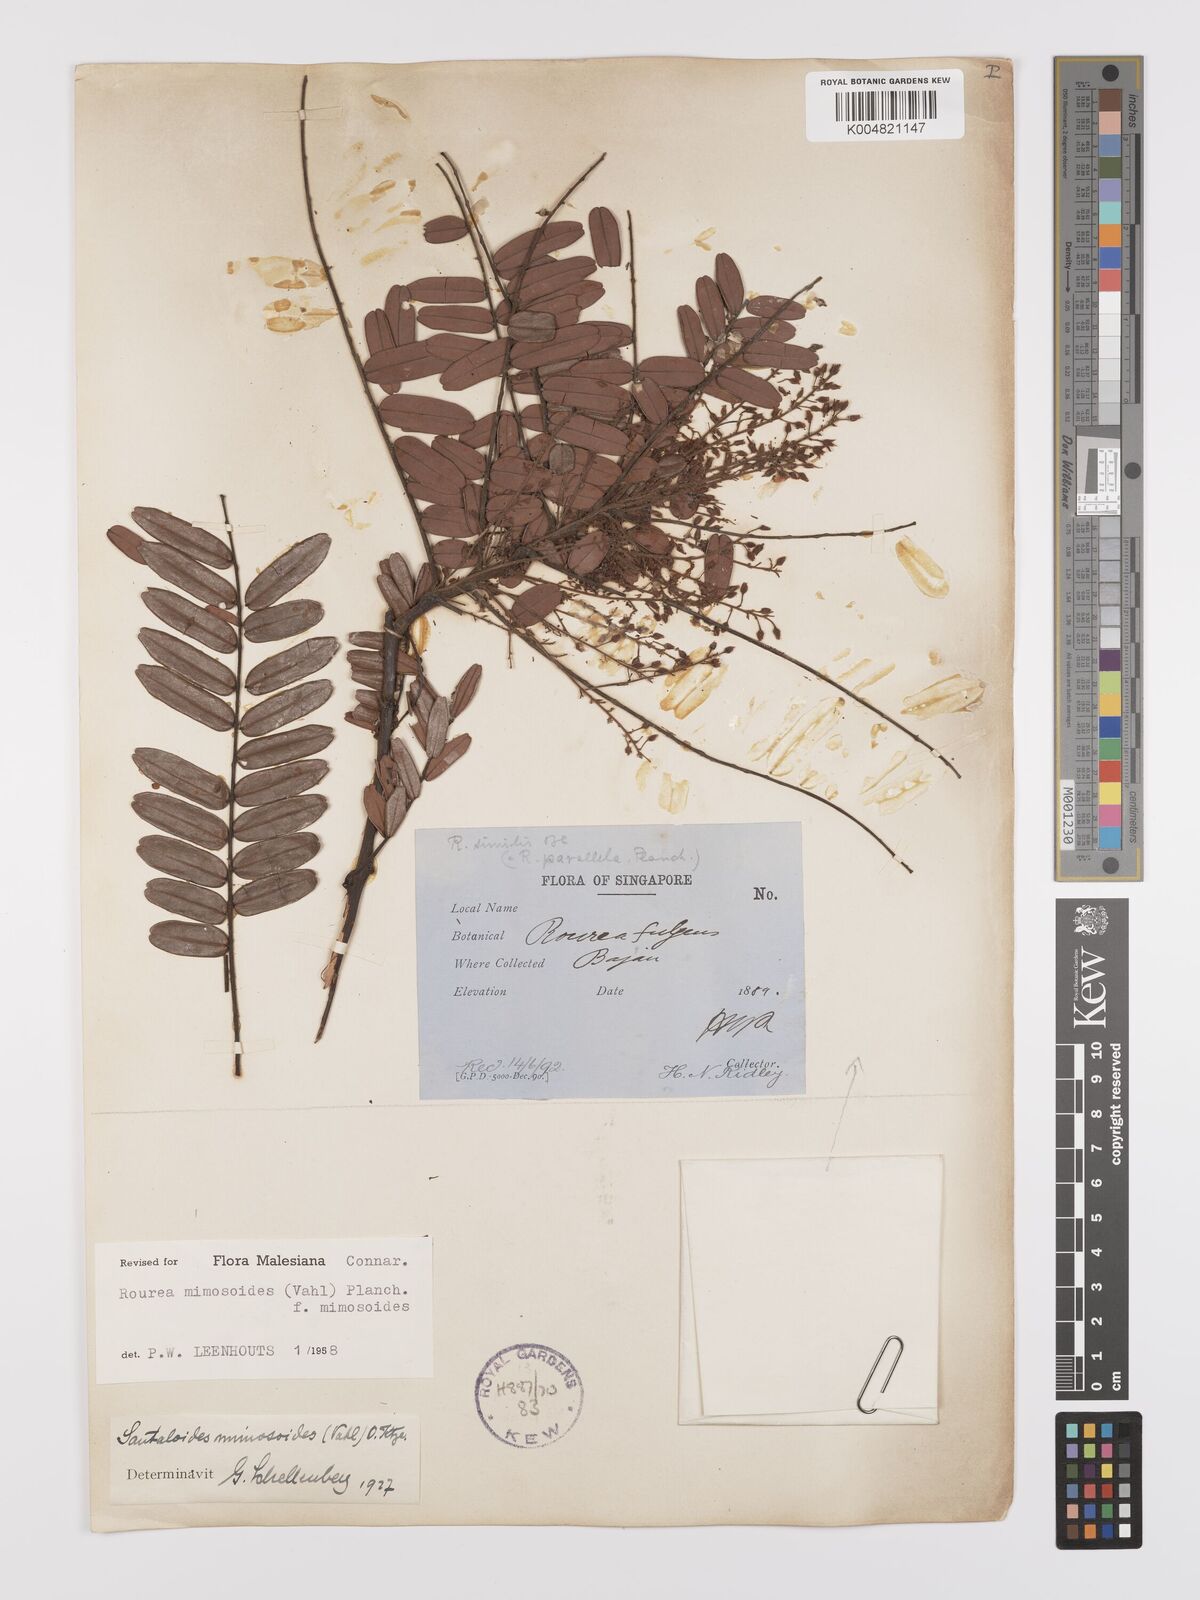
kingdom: Plantae
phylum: Tracheophyta
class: Magnoliopsida
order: Oxalidales
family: Connaraceae
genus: Rourea
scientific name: Rourea mimosoides
